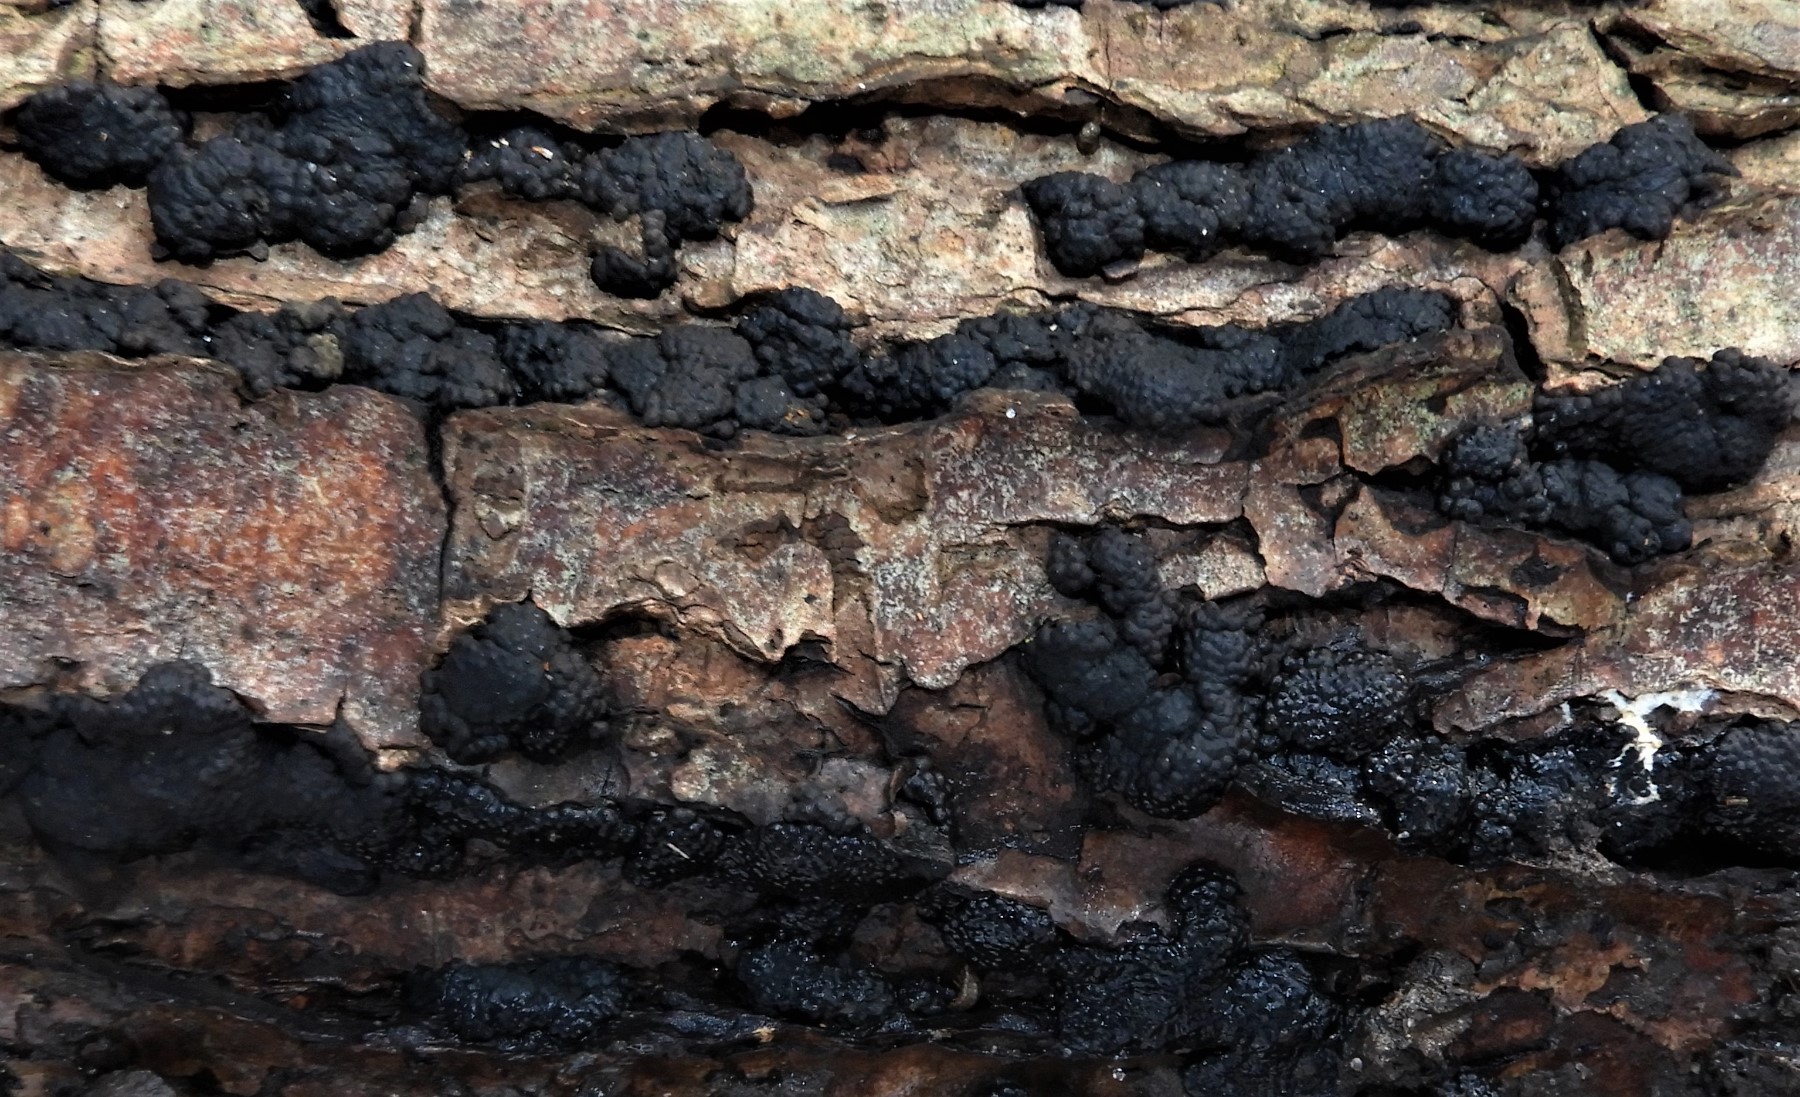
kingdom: Fungi
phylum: Ascomycota
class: Sordariomycetes
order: Xylariales
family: Hypoxylaceae
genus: Jackrogersella
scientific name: Jackrogersella multiformis
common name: foranderlig kulbær
